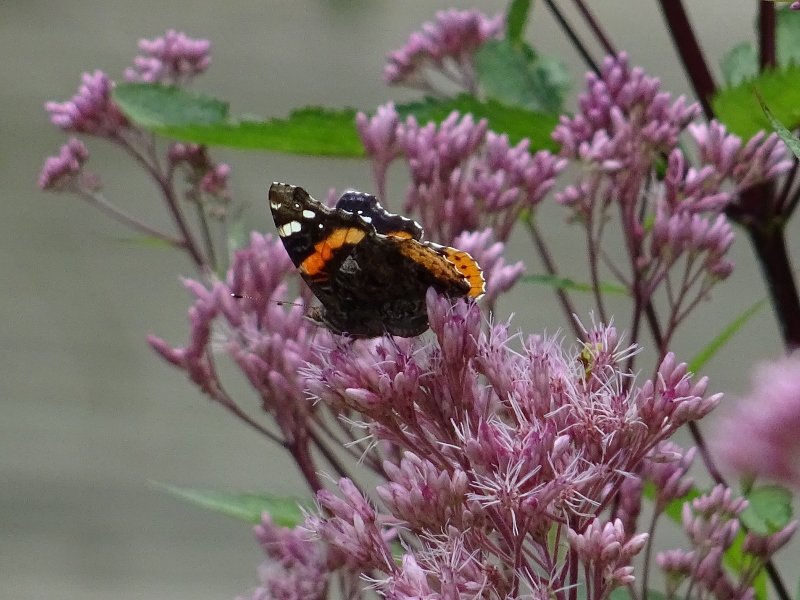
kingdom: Animalia
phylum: Arthropoda
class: Insecta
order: Lepidoptera
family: Nymphalidae
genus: Vanessa
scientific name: Vanessa atalanta
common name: Red Admiral
